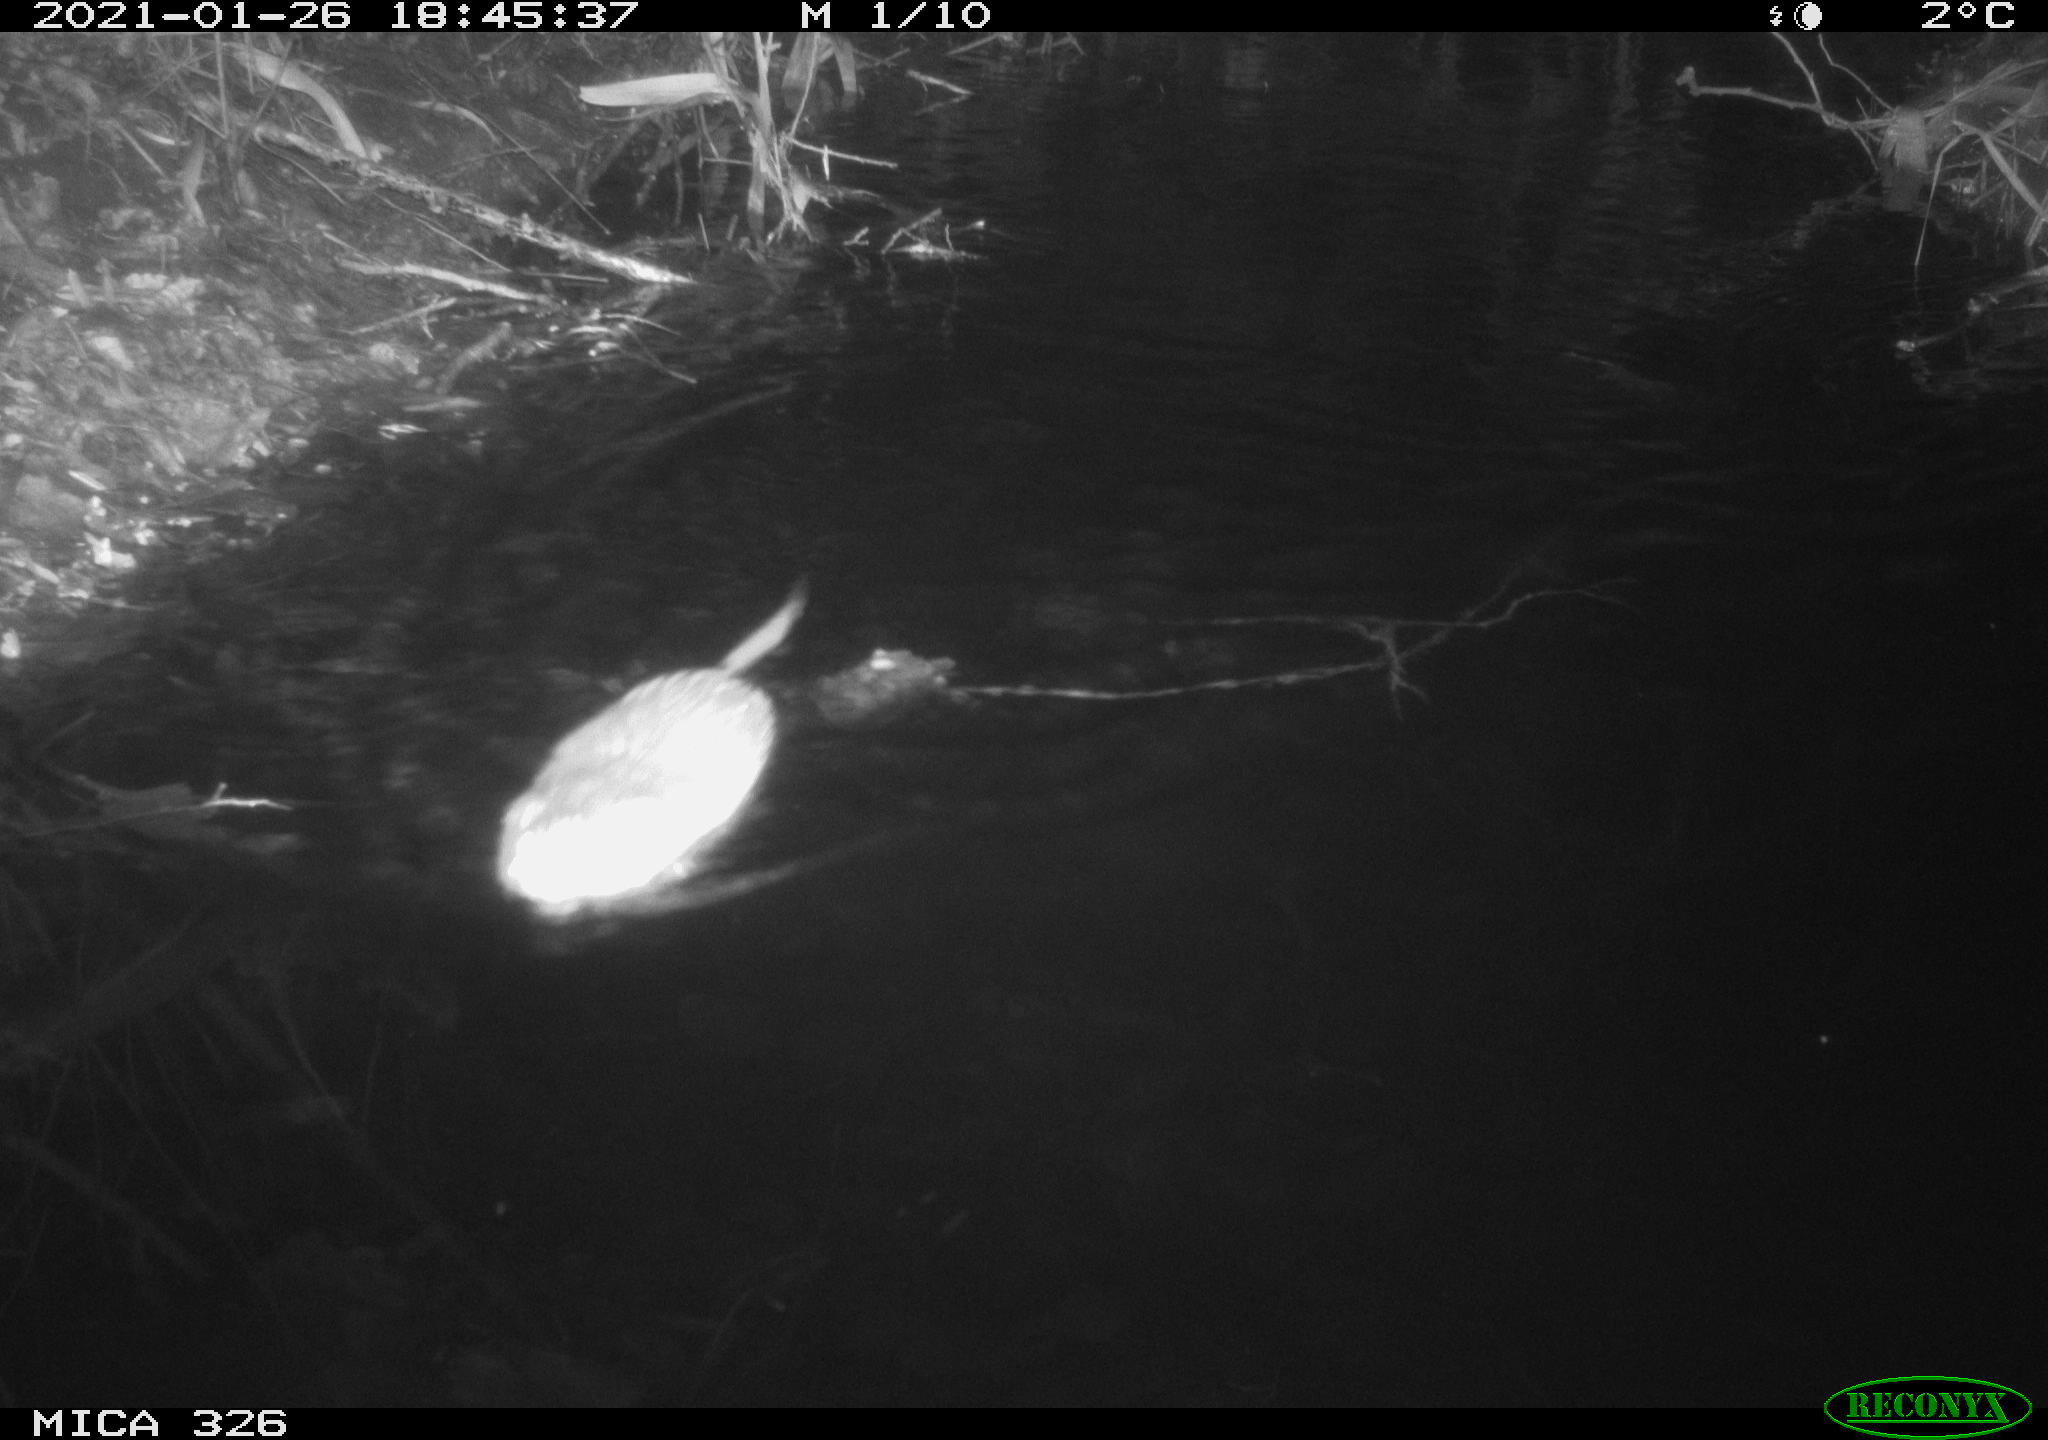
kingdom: Animalia
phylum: Chordata
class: Mammalia
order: Rodentia
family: Cricetidae
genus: Ondatra
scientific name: Ondatra zibethicus
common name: Muskrat
